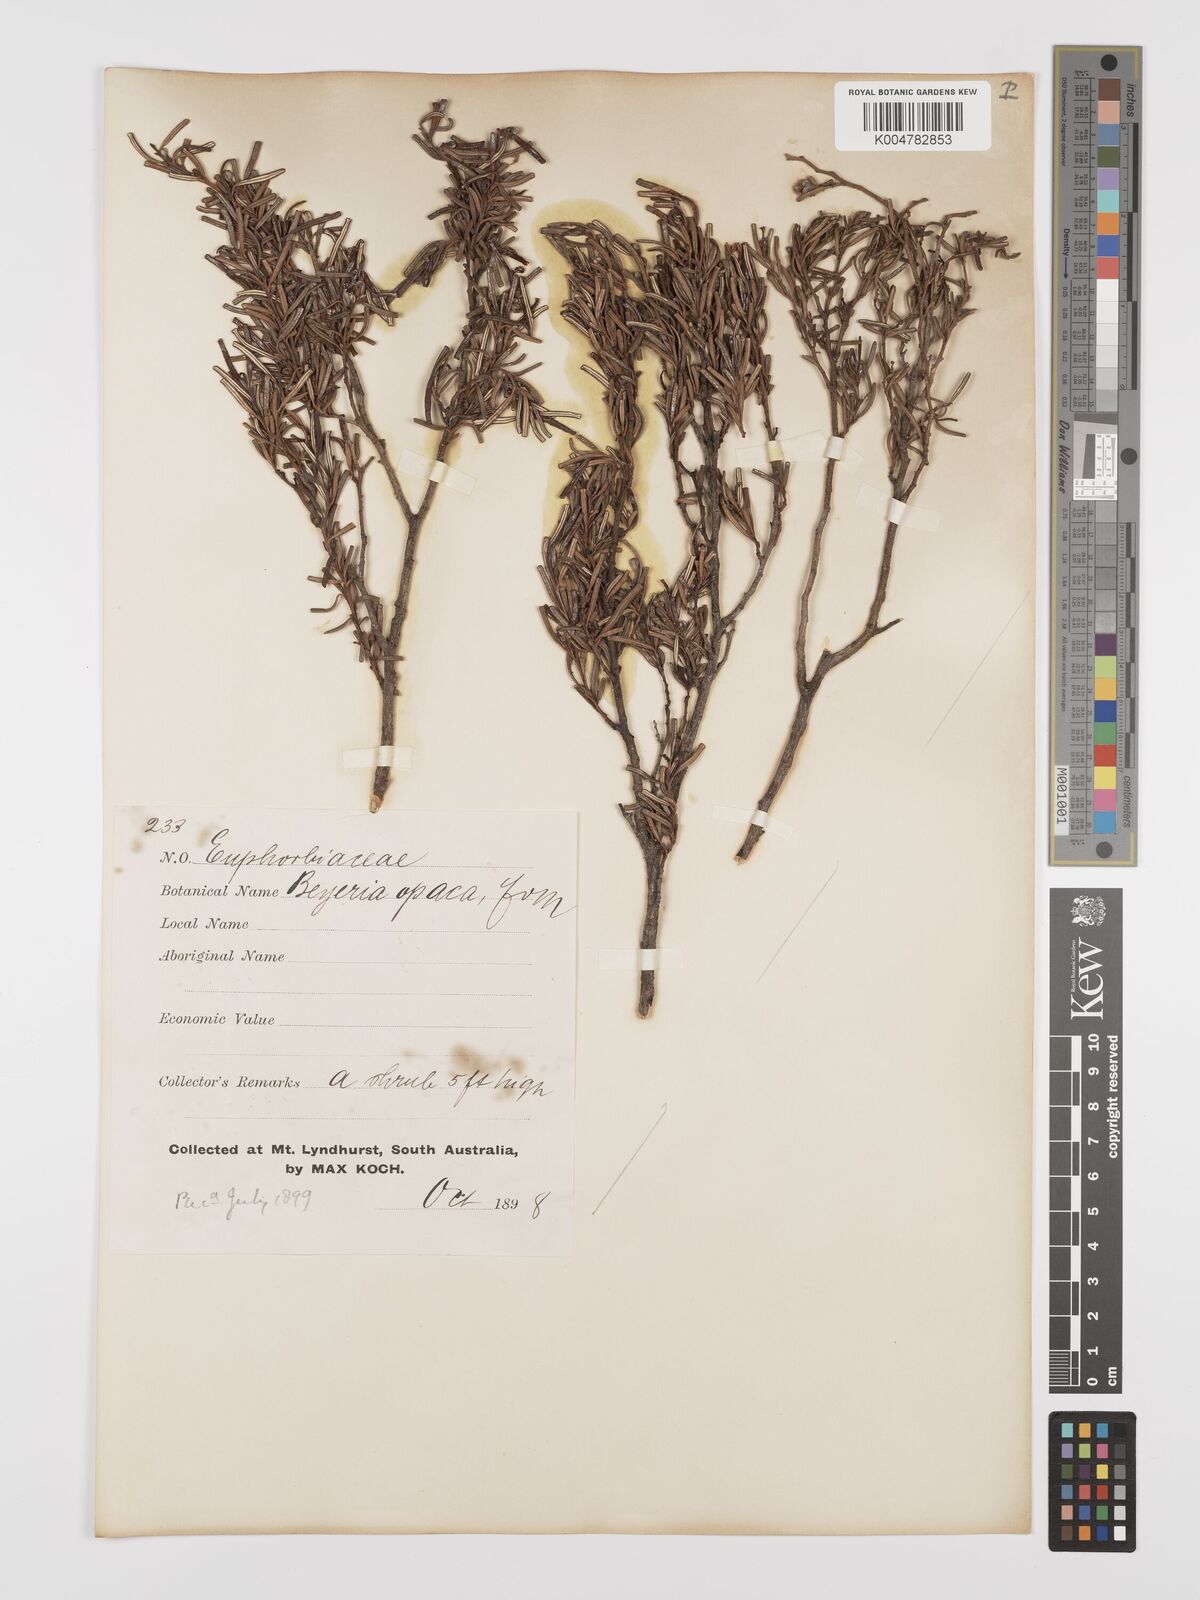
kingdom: Plantae
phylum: Tracheophyta
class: Magnoliopsida
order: Malpighiales
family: Euphorbiaceae
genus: Beyeria
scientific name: Beyeria lechenaultii
